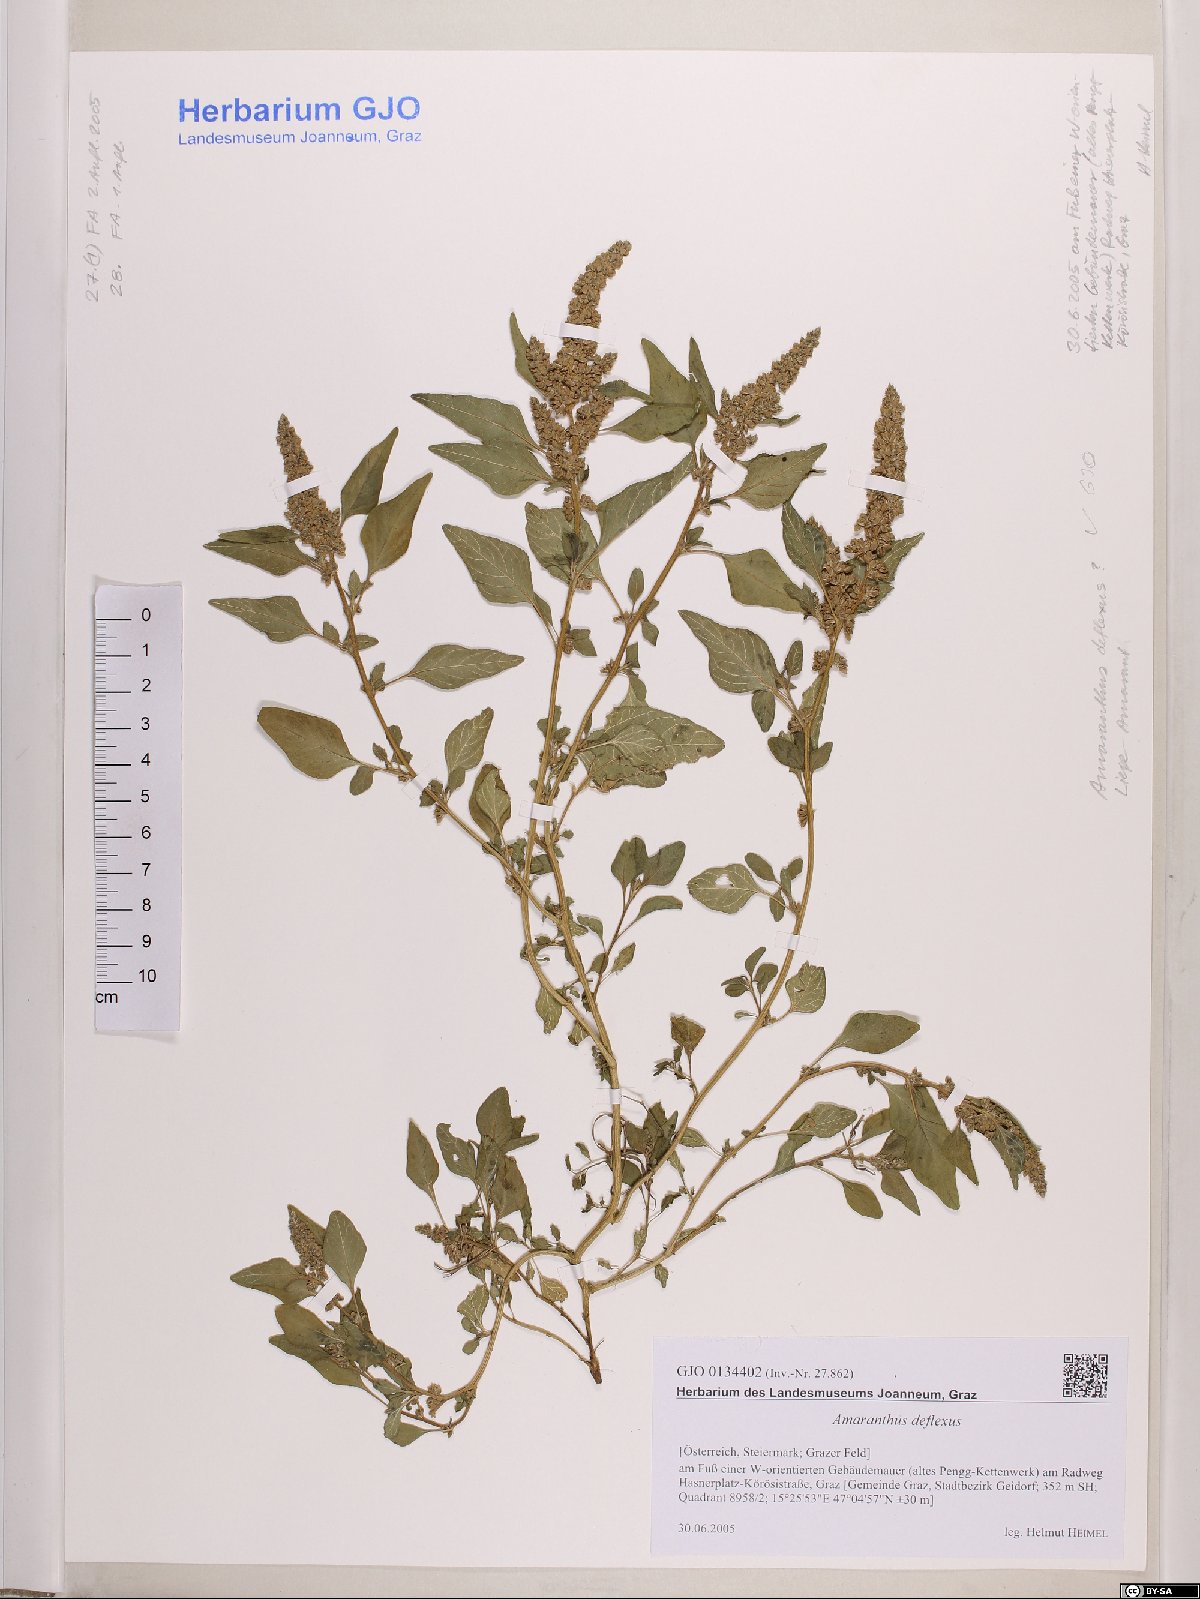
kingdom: Plantae
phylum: Tracheophyta
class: Magnoliopsida
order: Caryophyllales
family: Amaranthaceae
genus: Amaranthus
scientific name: Amaranthus deflexus
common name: Perennial pigweed
